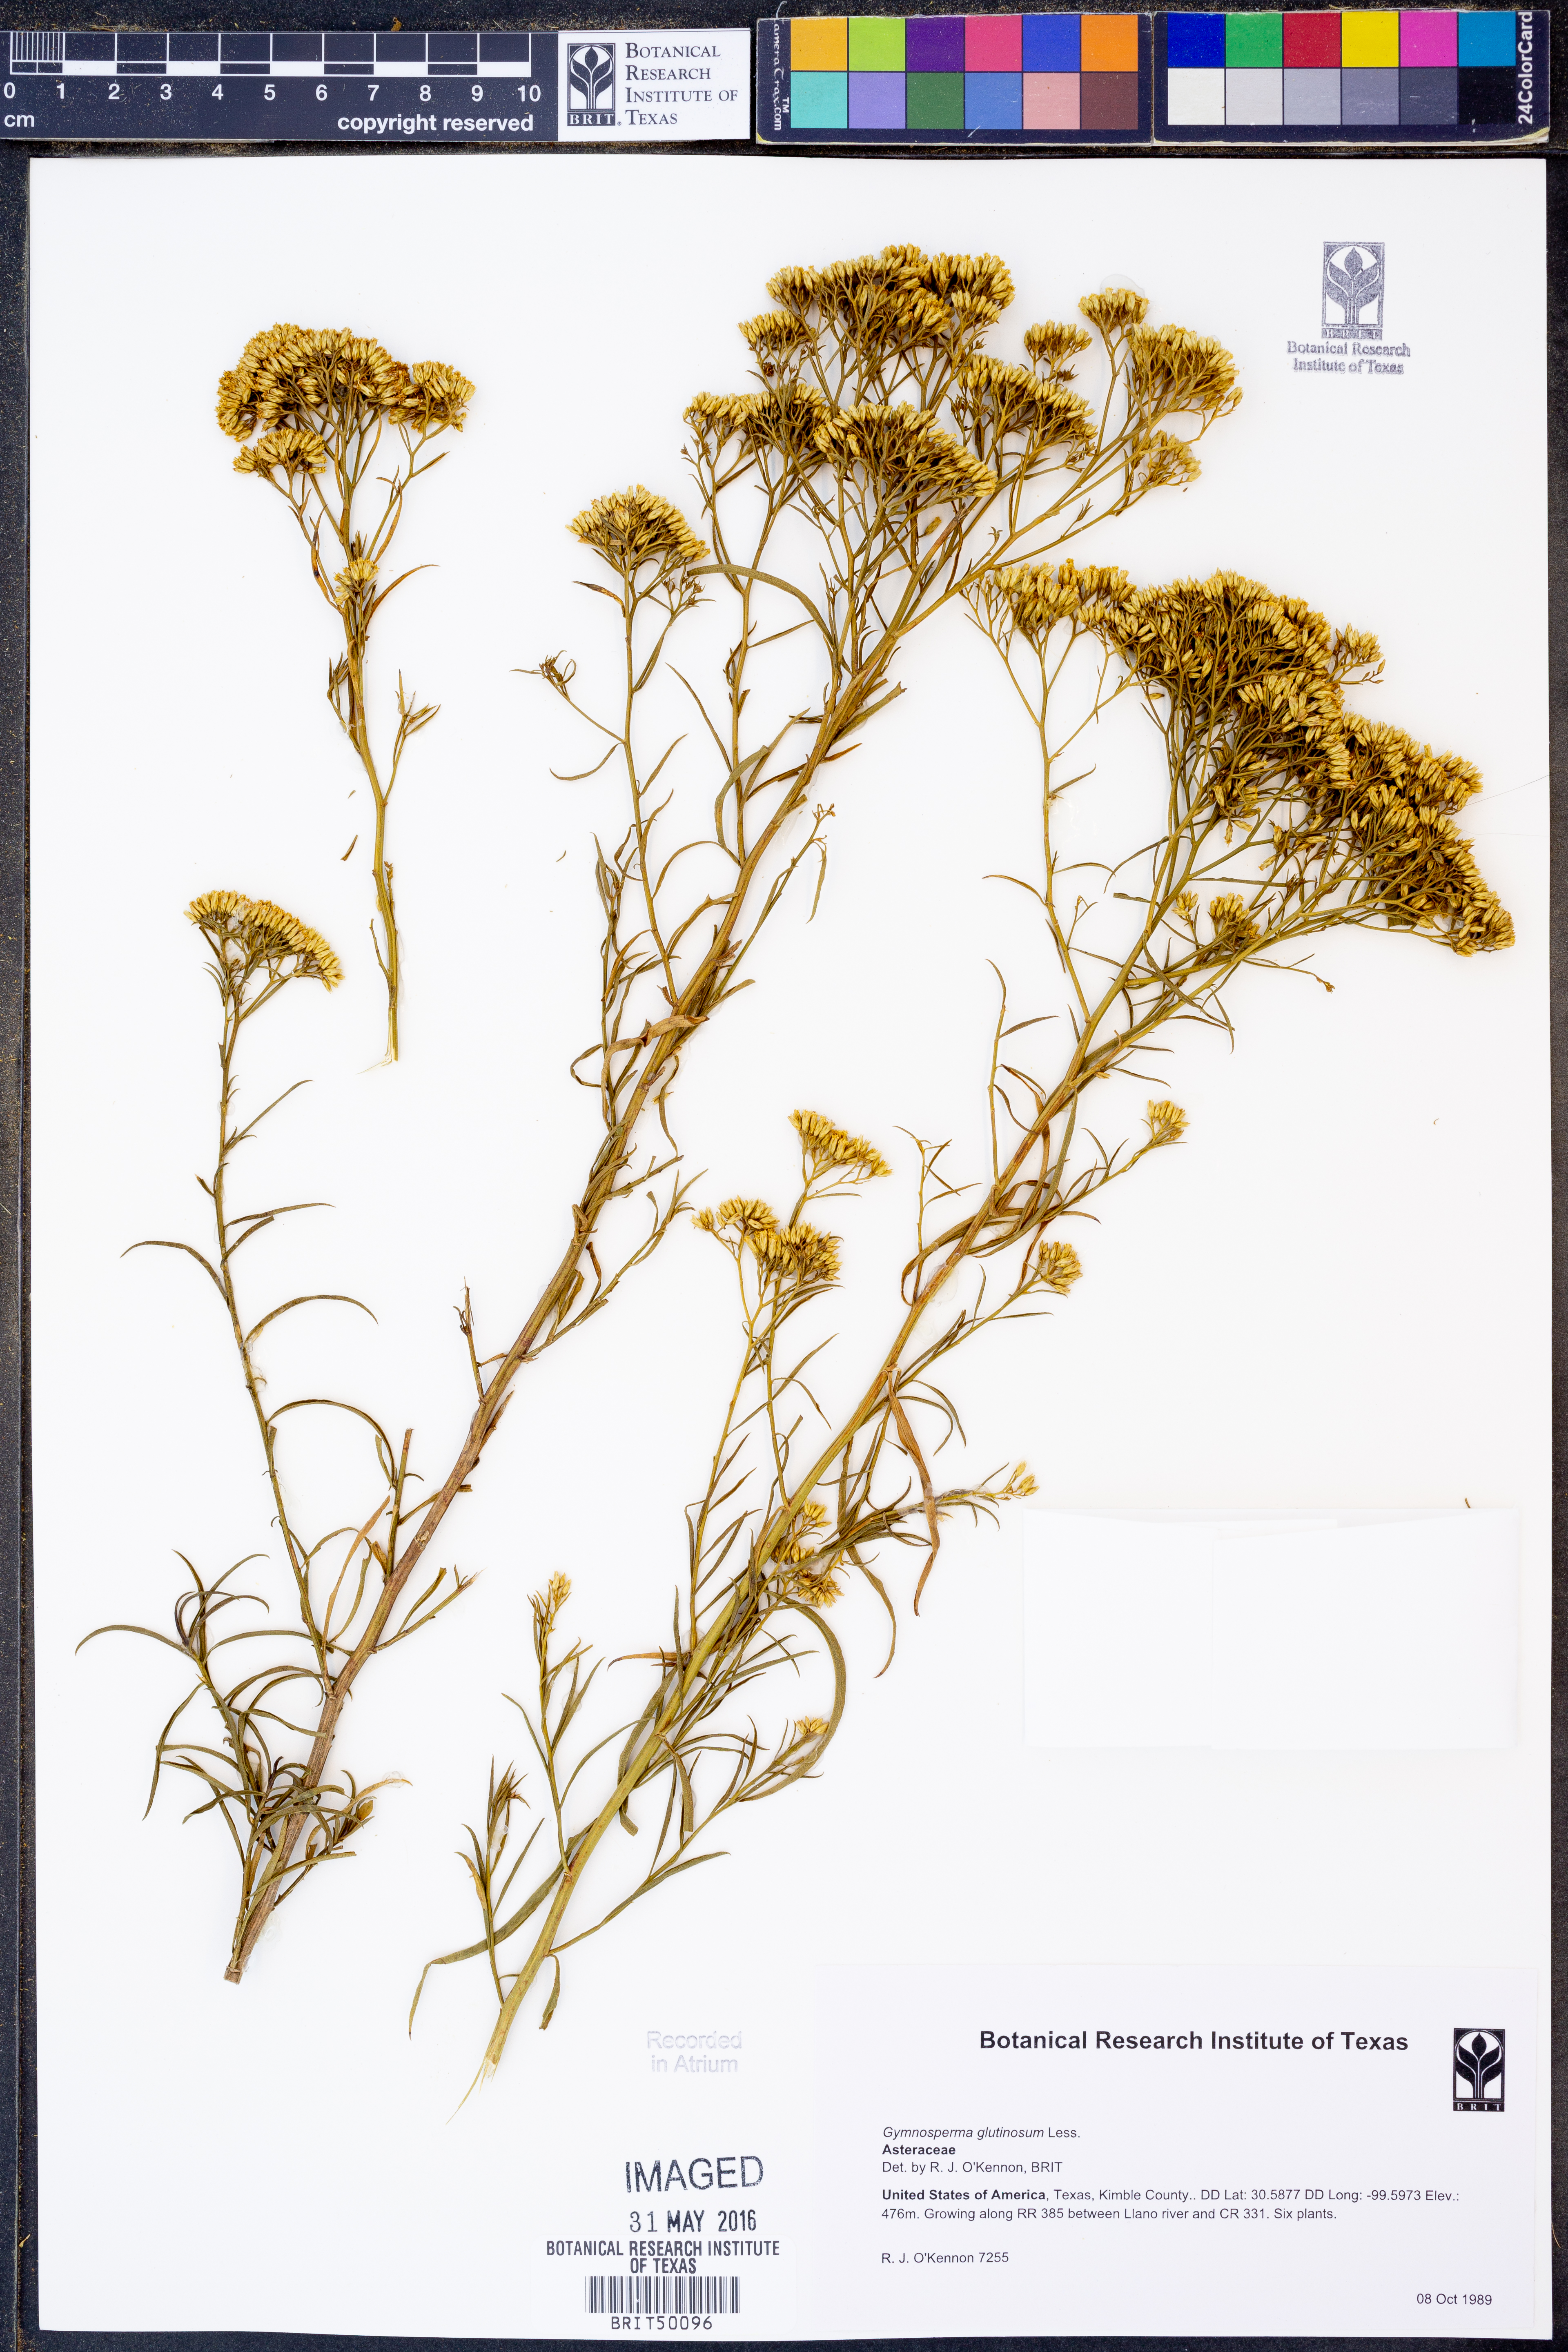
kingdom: Plantae
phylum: Tracheophyta
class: Magnoliopsida
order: Asterales
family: Asteraceae
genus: Gymnosperma
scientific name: Gymnosperma glutinosum
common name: Gumhead
